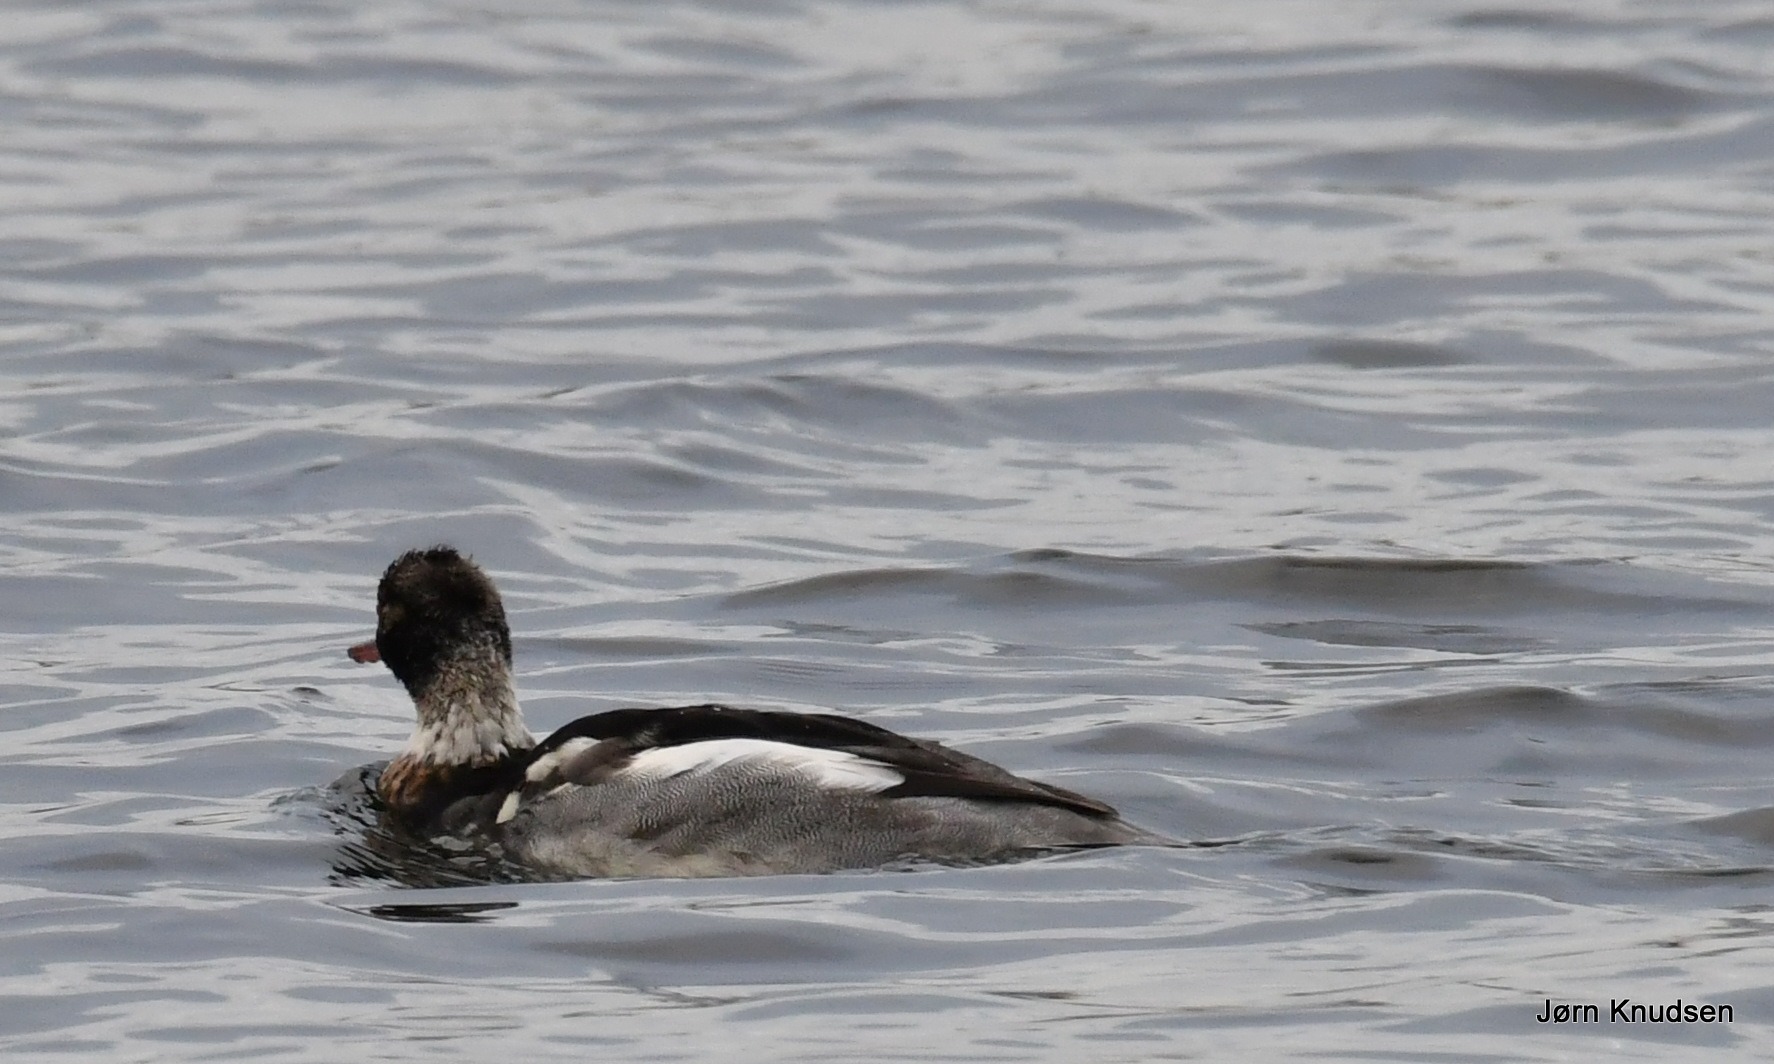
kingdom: Animalia
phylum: Chordata
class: Aves
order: Anseriformes
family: Anatidae
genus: Mergus
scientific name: Mergus serrator
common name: Toppet skallesluger
